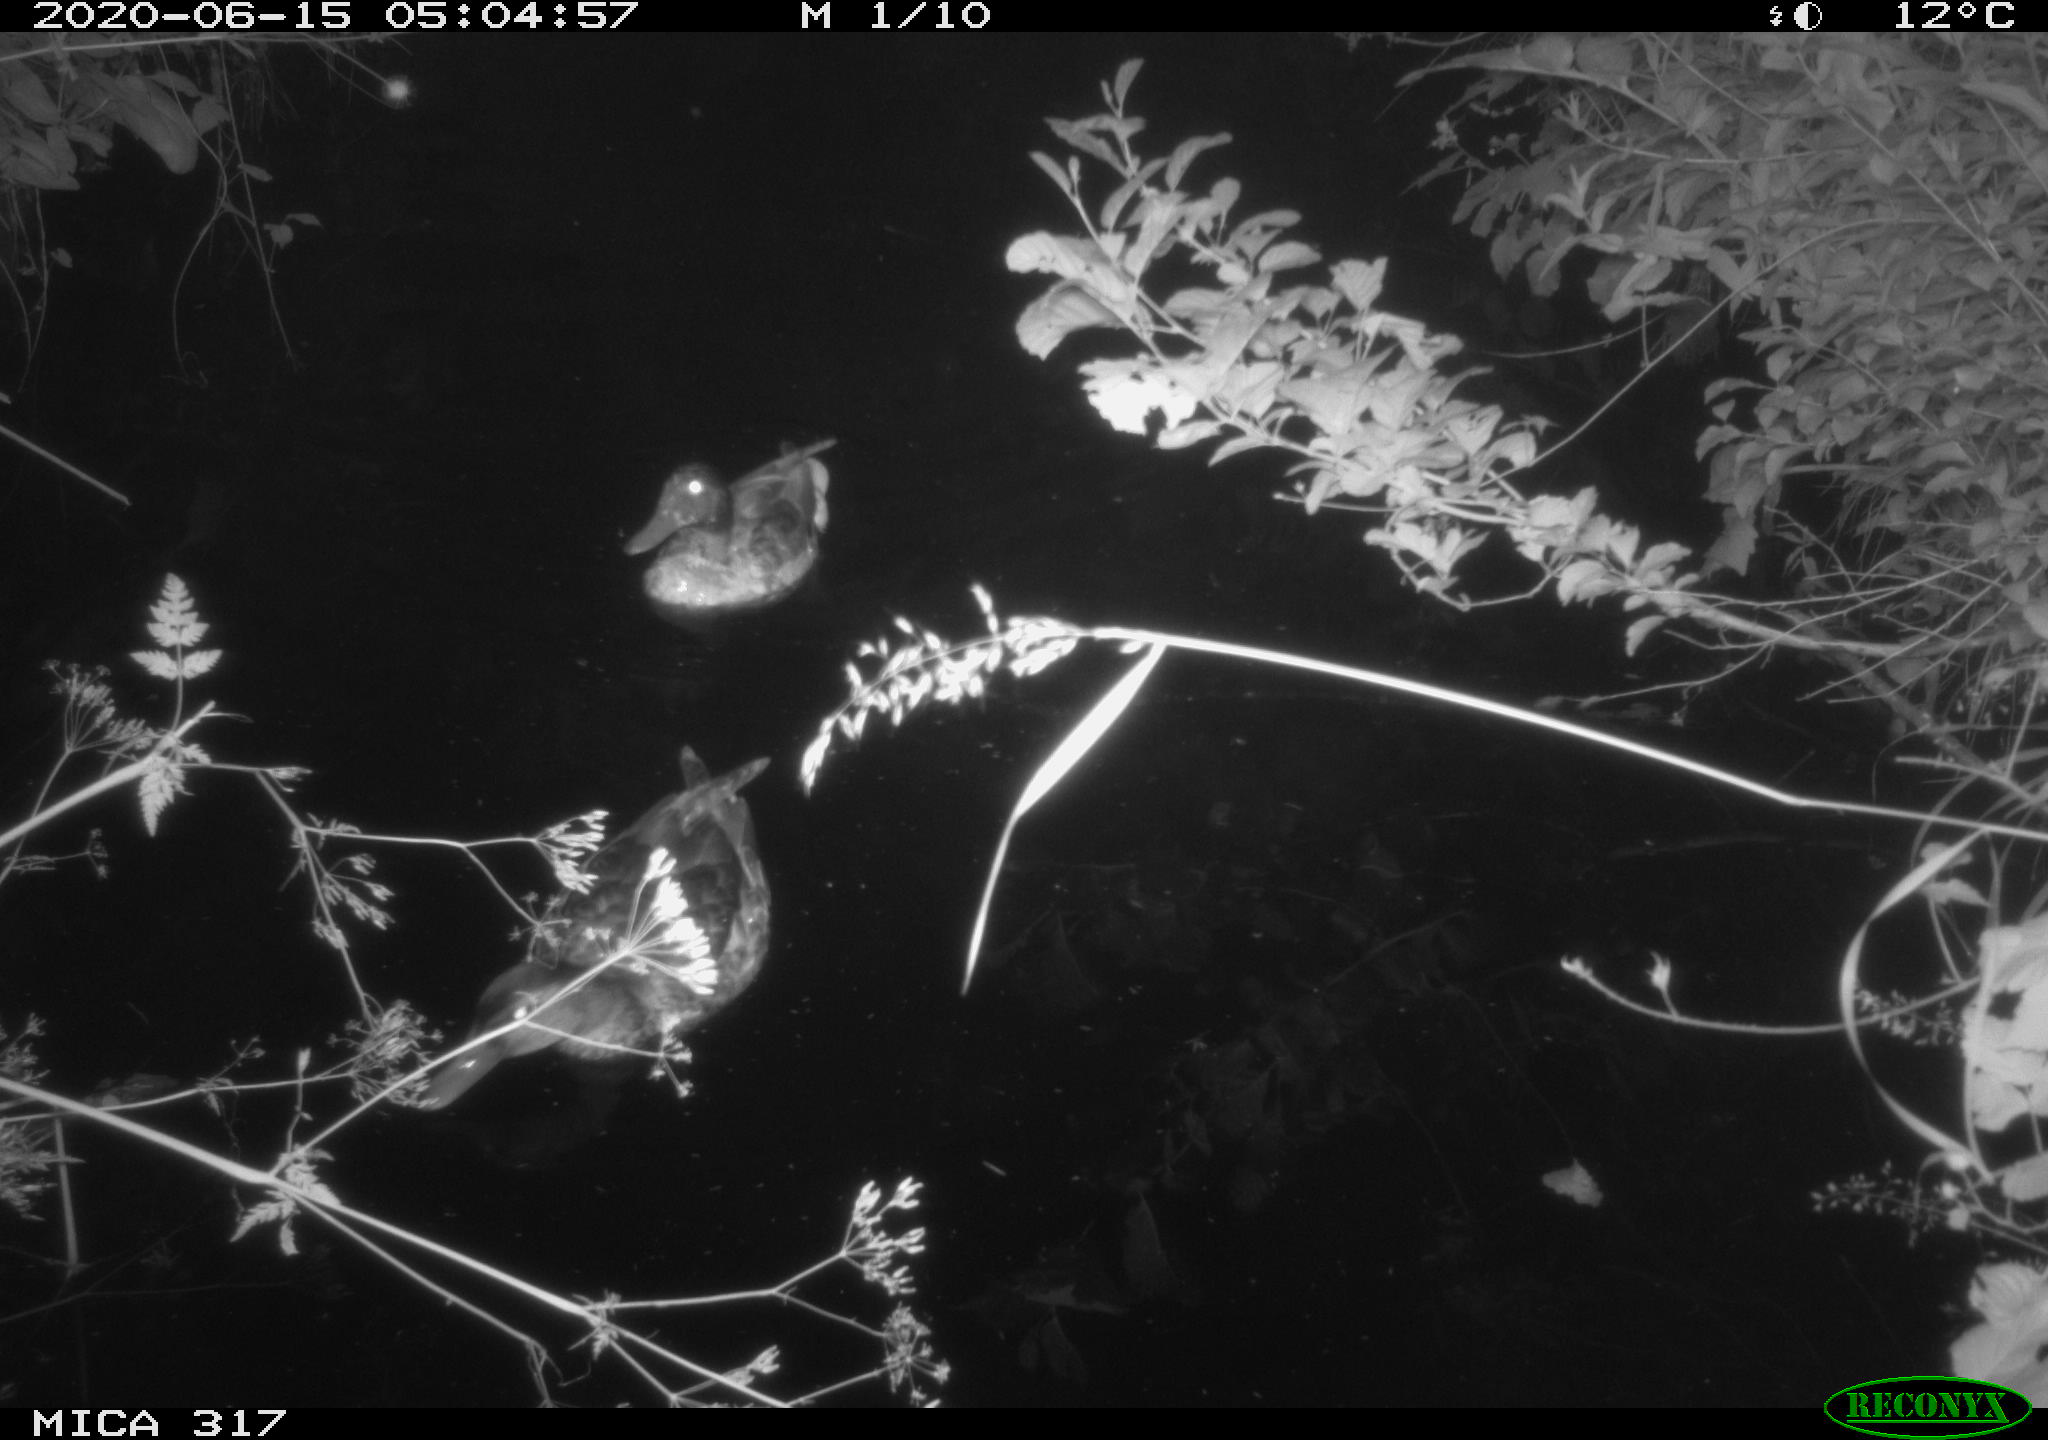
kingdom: Animalia
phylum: Chordata
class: Aves
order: Anseriformes
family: Anatidae
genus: Anas
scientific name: Anas platyrhynchos
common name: Mallard
